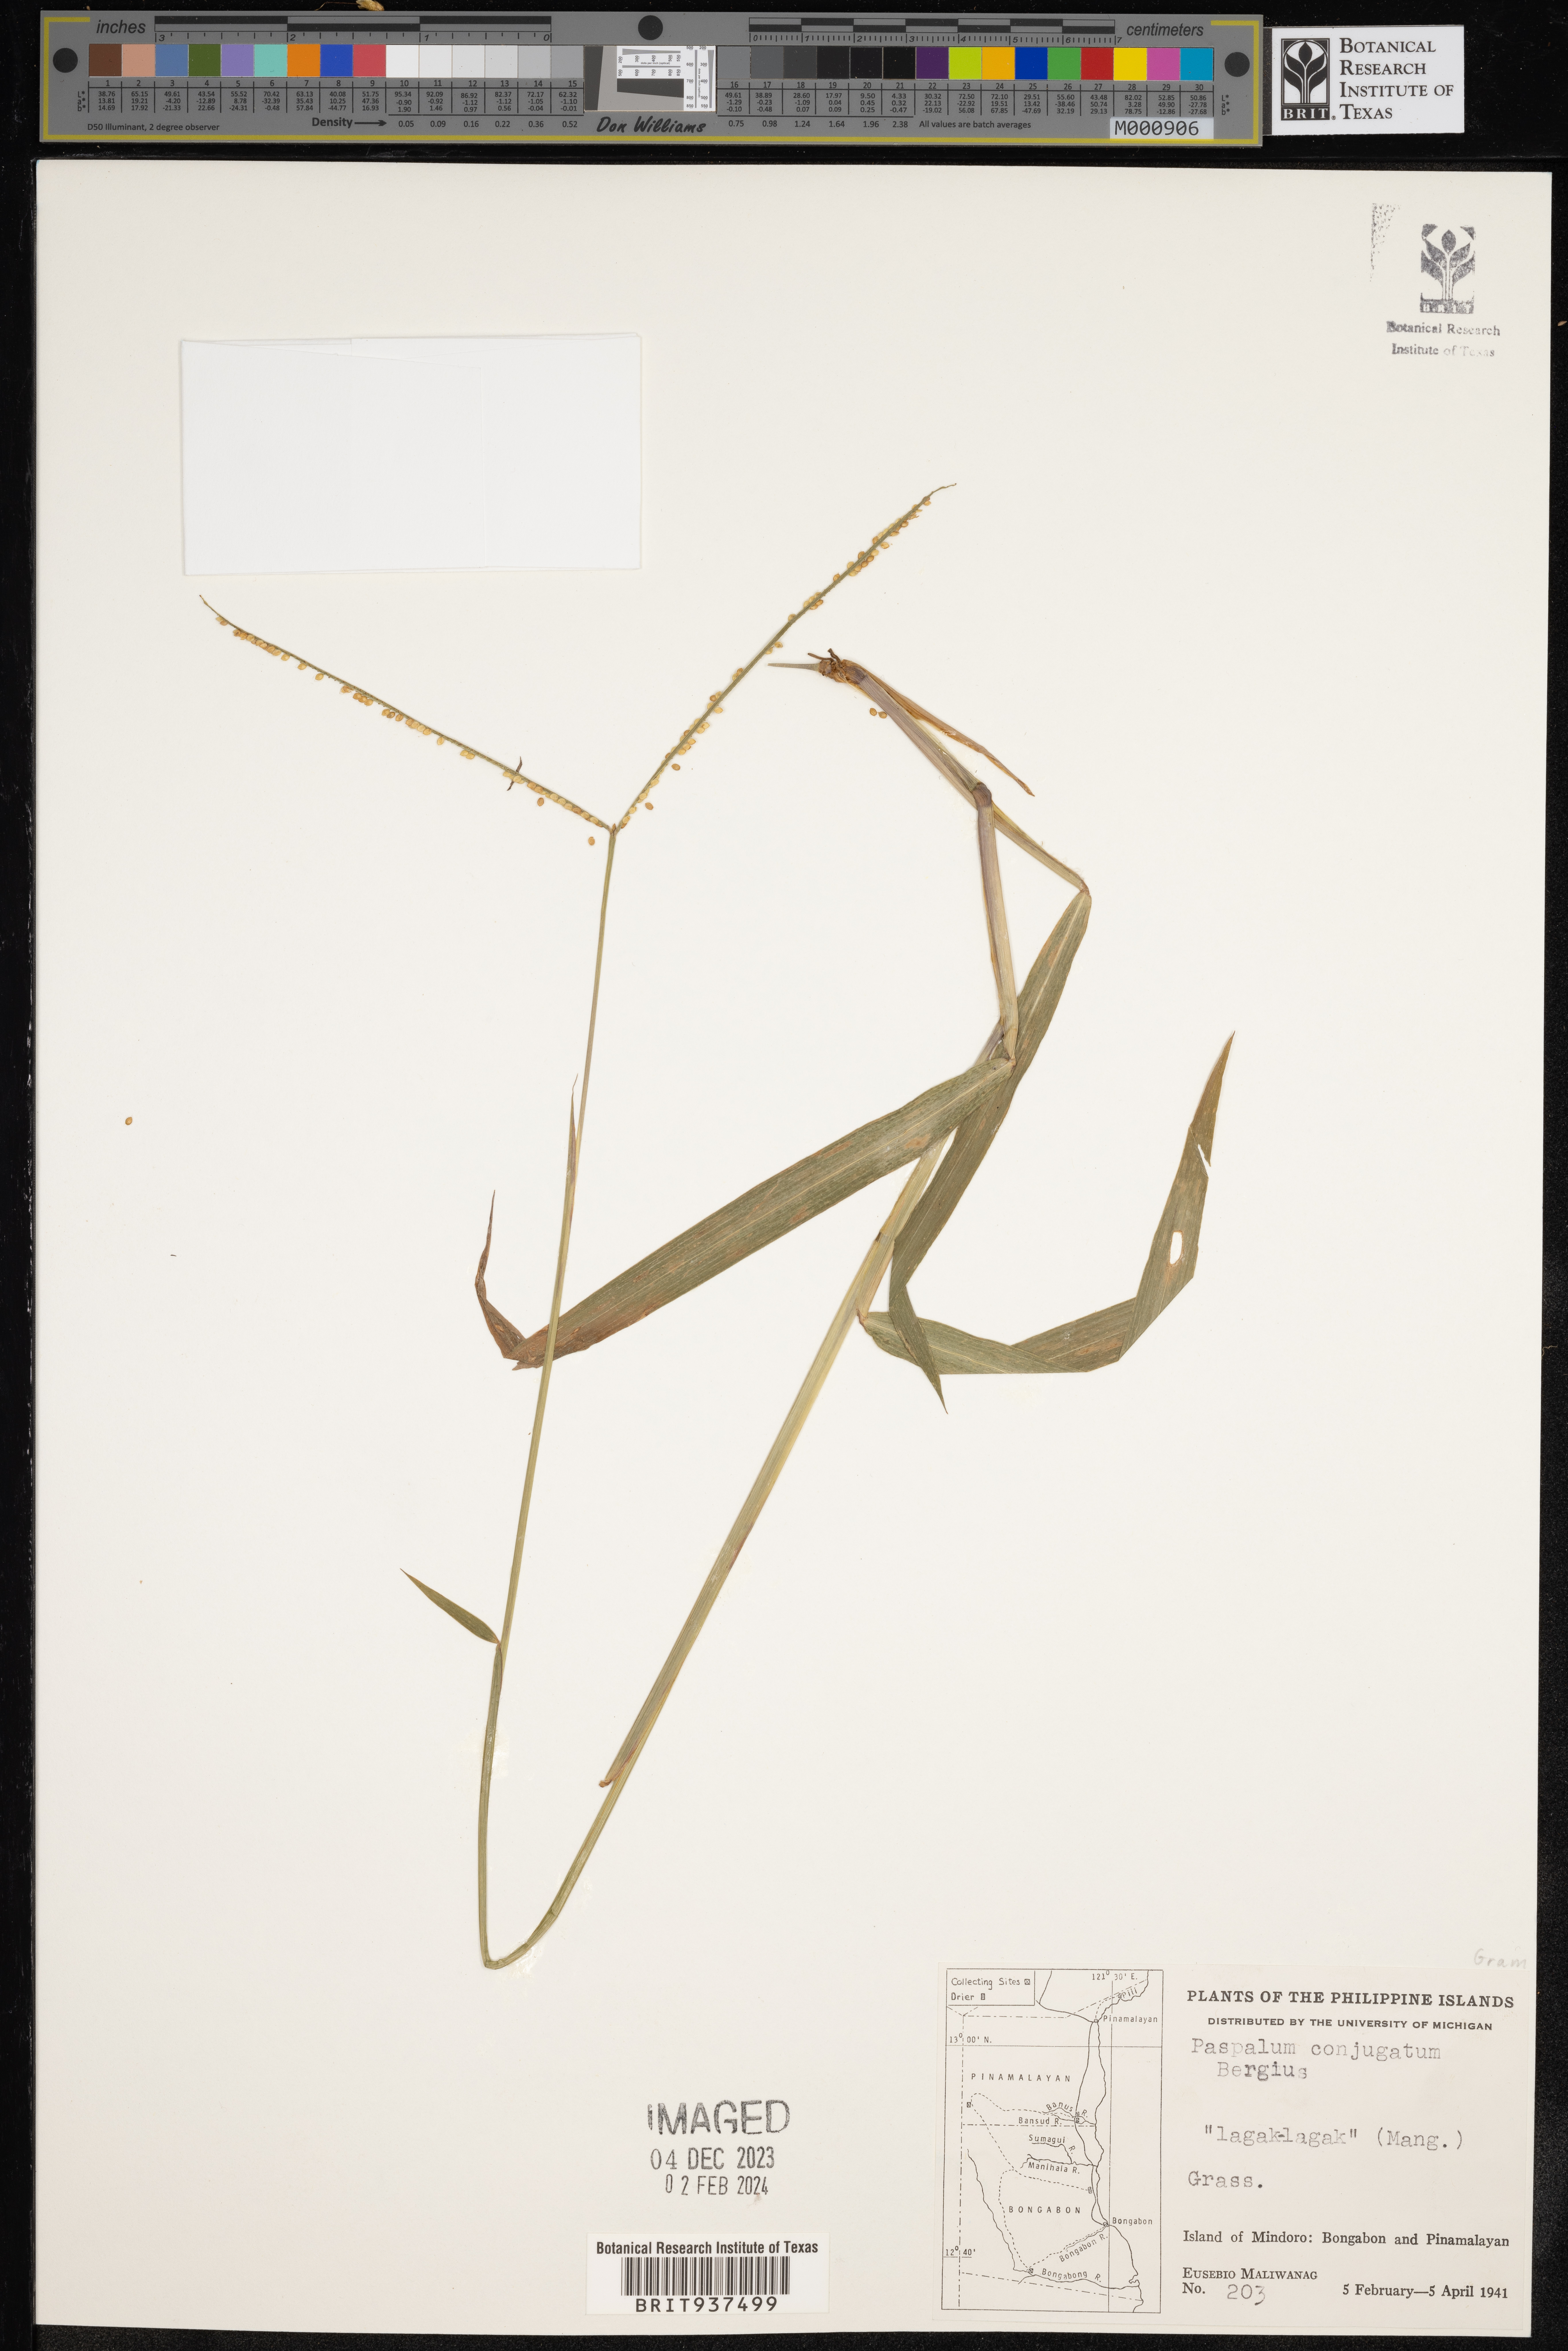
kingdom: Plantae
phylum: Tracheophyta
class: Liliopsida
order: Poales
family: Poaceae
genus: Paspalum
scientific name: Paspalum
